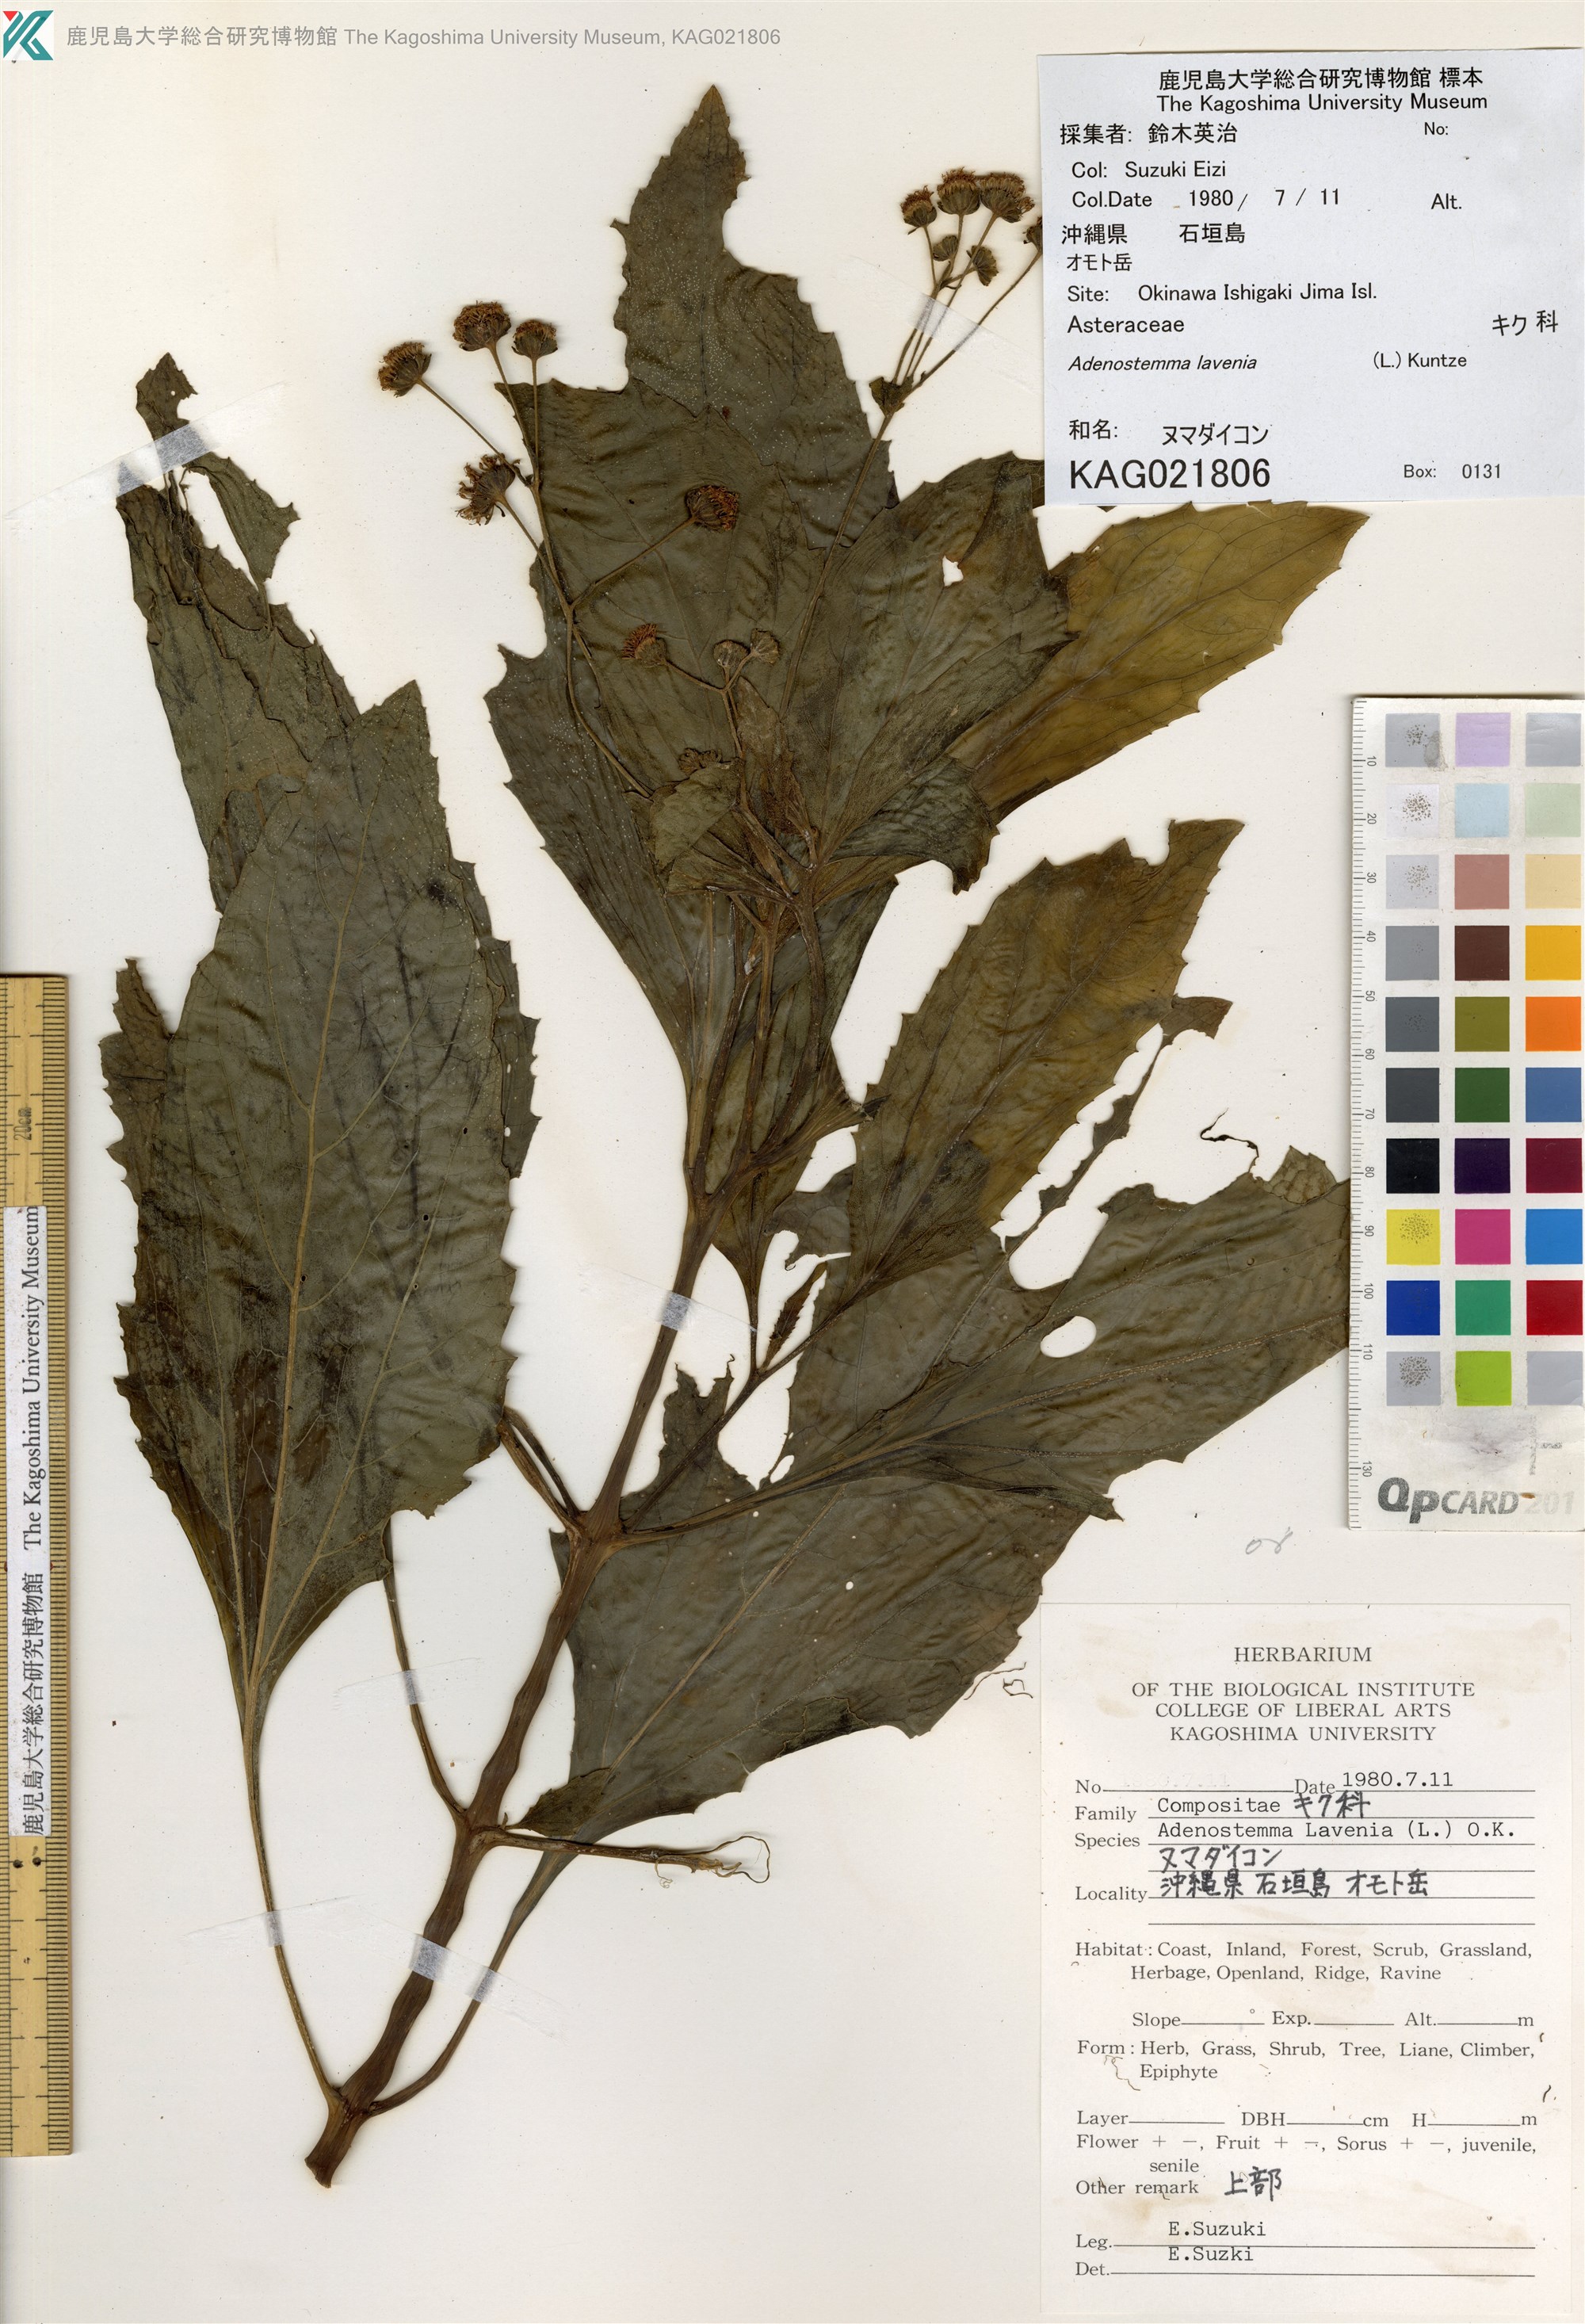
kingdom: Plantae
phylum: Tracheophyta
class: Magnoliopsida
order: Asterales
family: Asteraceae
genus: Adenostemma
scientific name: Adenostemma lavenia
